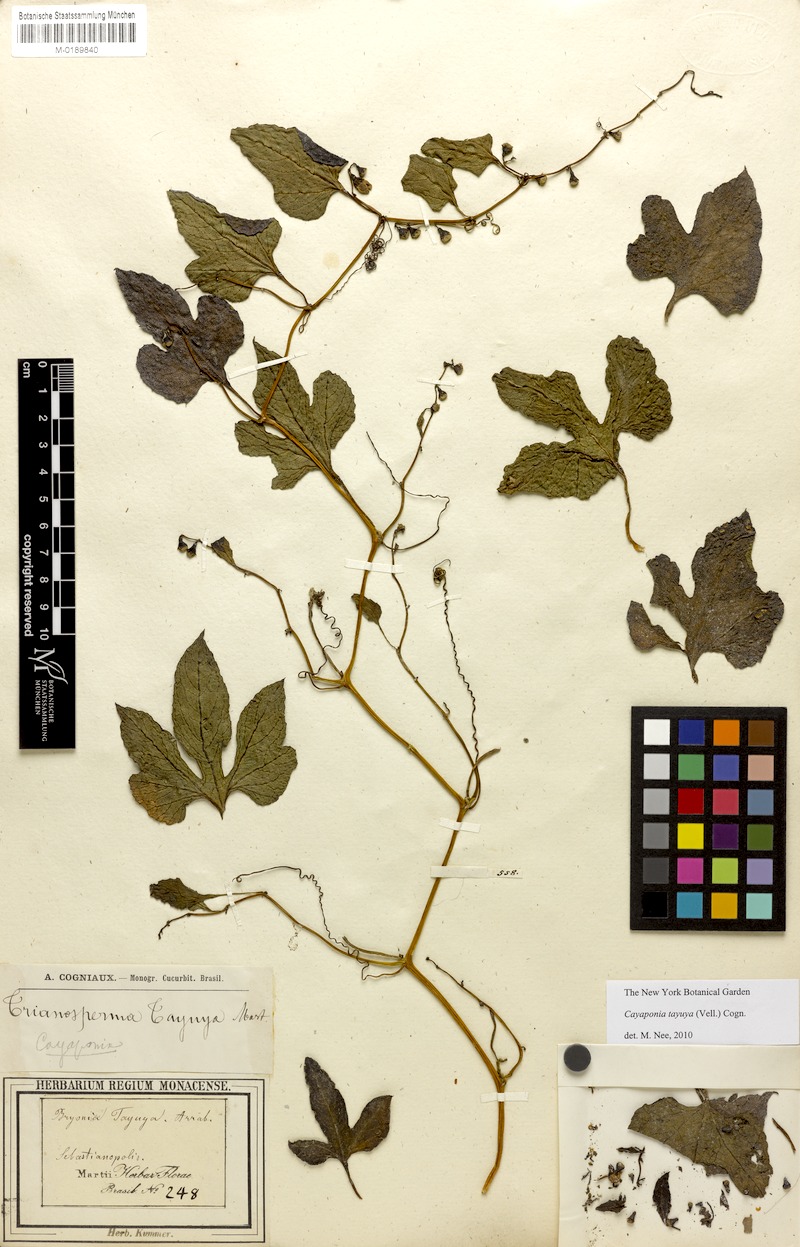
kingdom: Plantae
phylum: Tracheophyta
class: Magnoliopsida
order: Cucurbitales
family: Cucurbitaceae
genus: Cayaponia
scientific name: Cayaponia tayuya
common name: Tayuya
